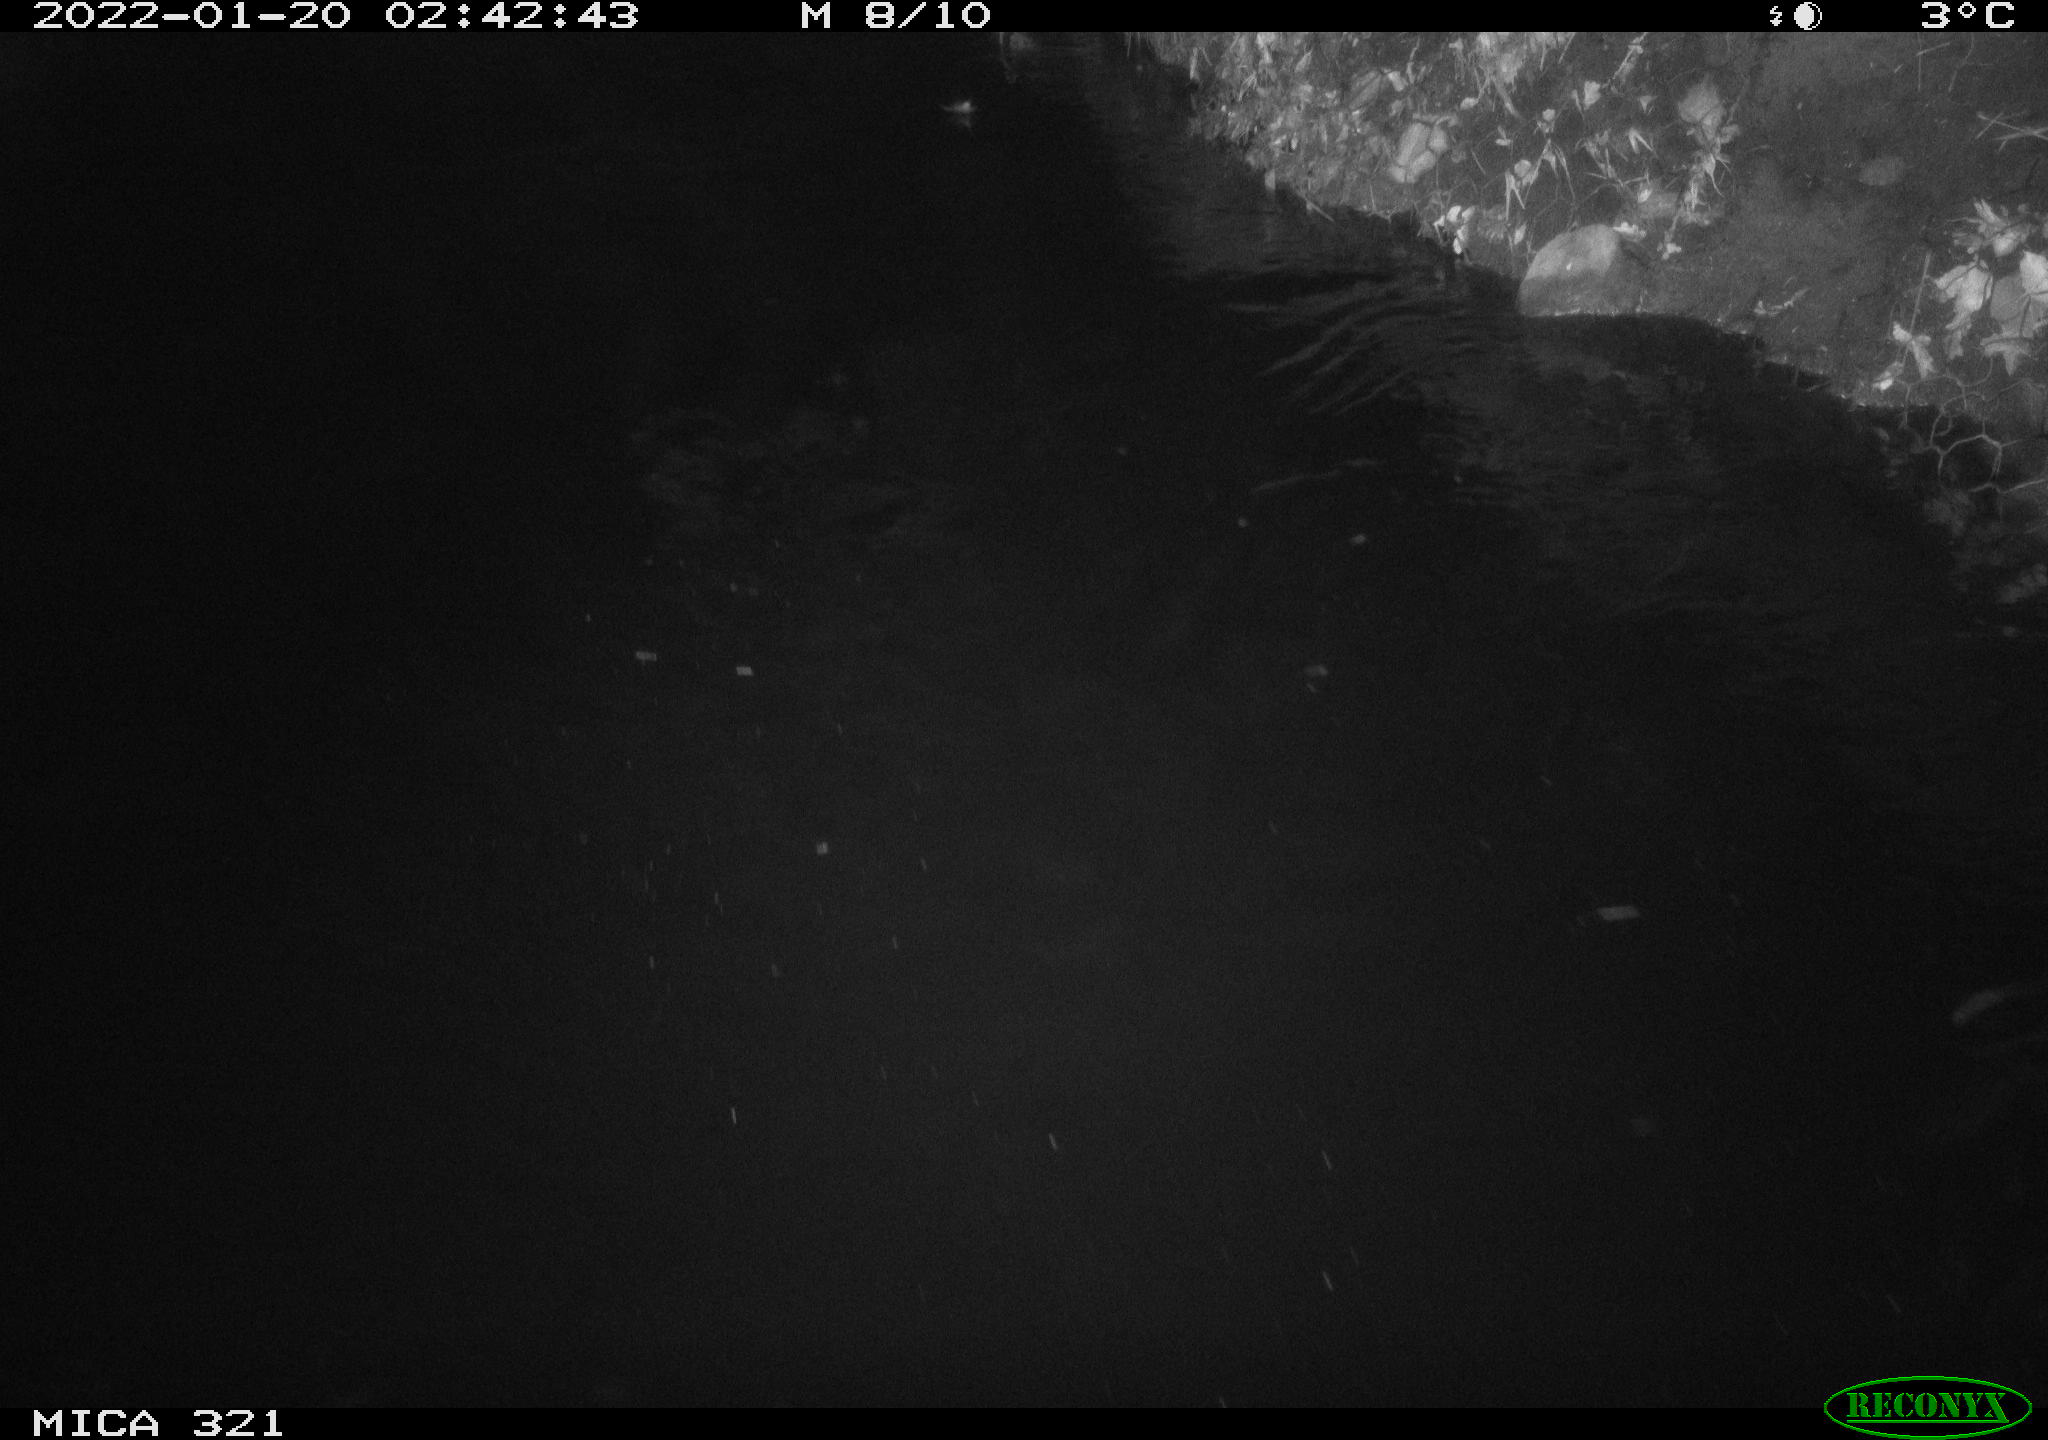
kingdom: Animalia
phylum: Chordata
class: Aves
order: Anseriformes
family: Anatidae
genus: Anas
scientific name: Anas
